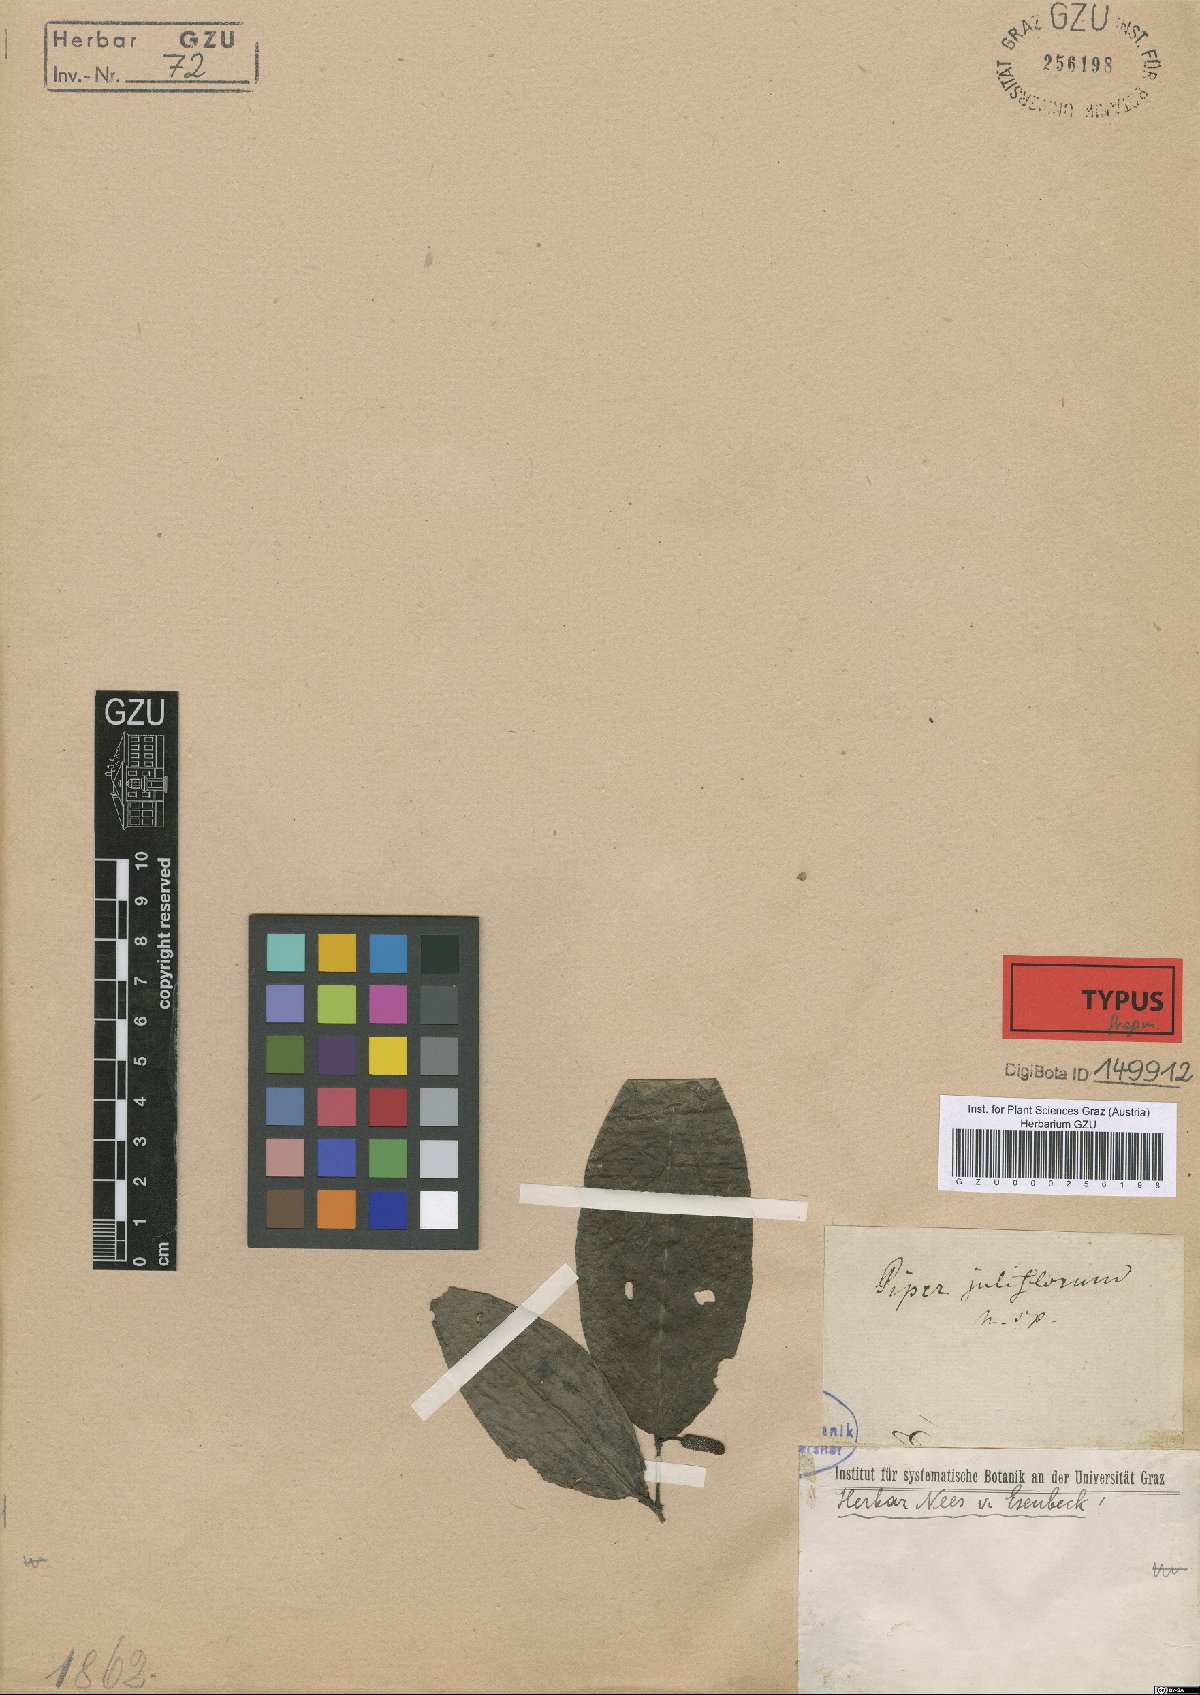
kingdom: Plantae
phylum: Tracheophyta
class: Magnoliopsida
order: Piperales
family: Piperaceae
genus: Piper
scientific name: Piper juliflorum
